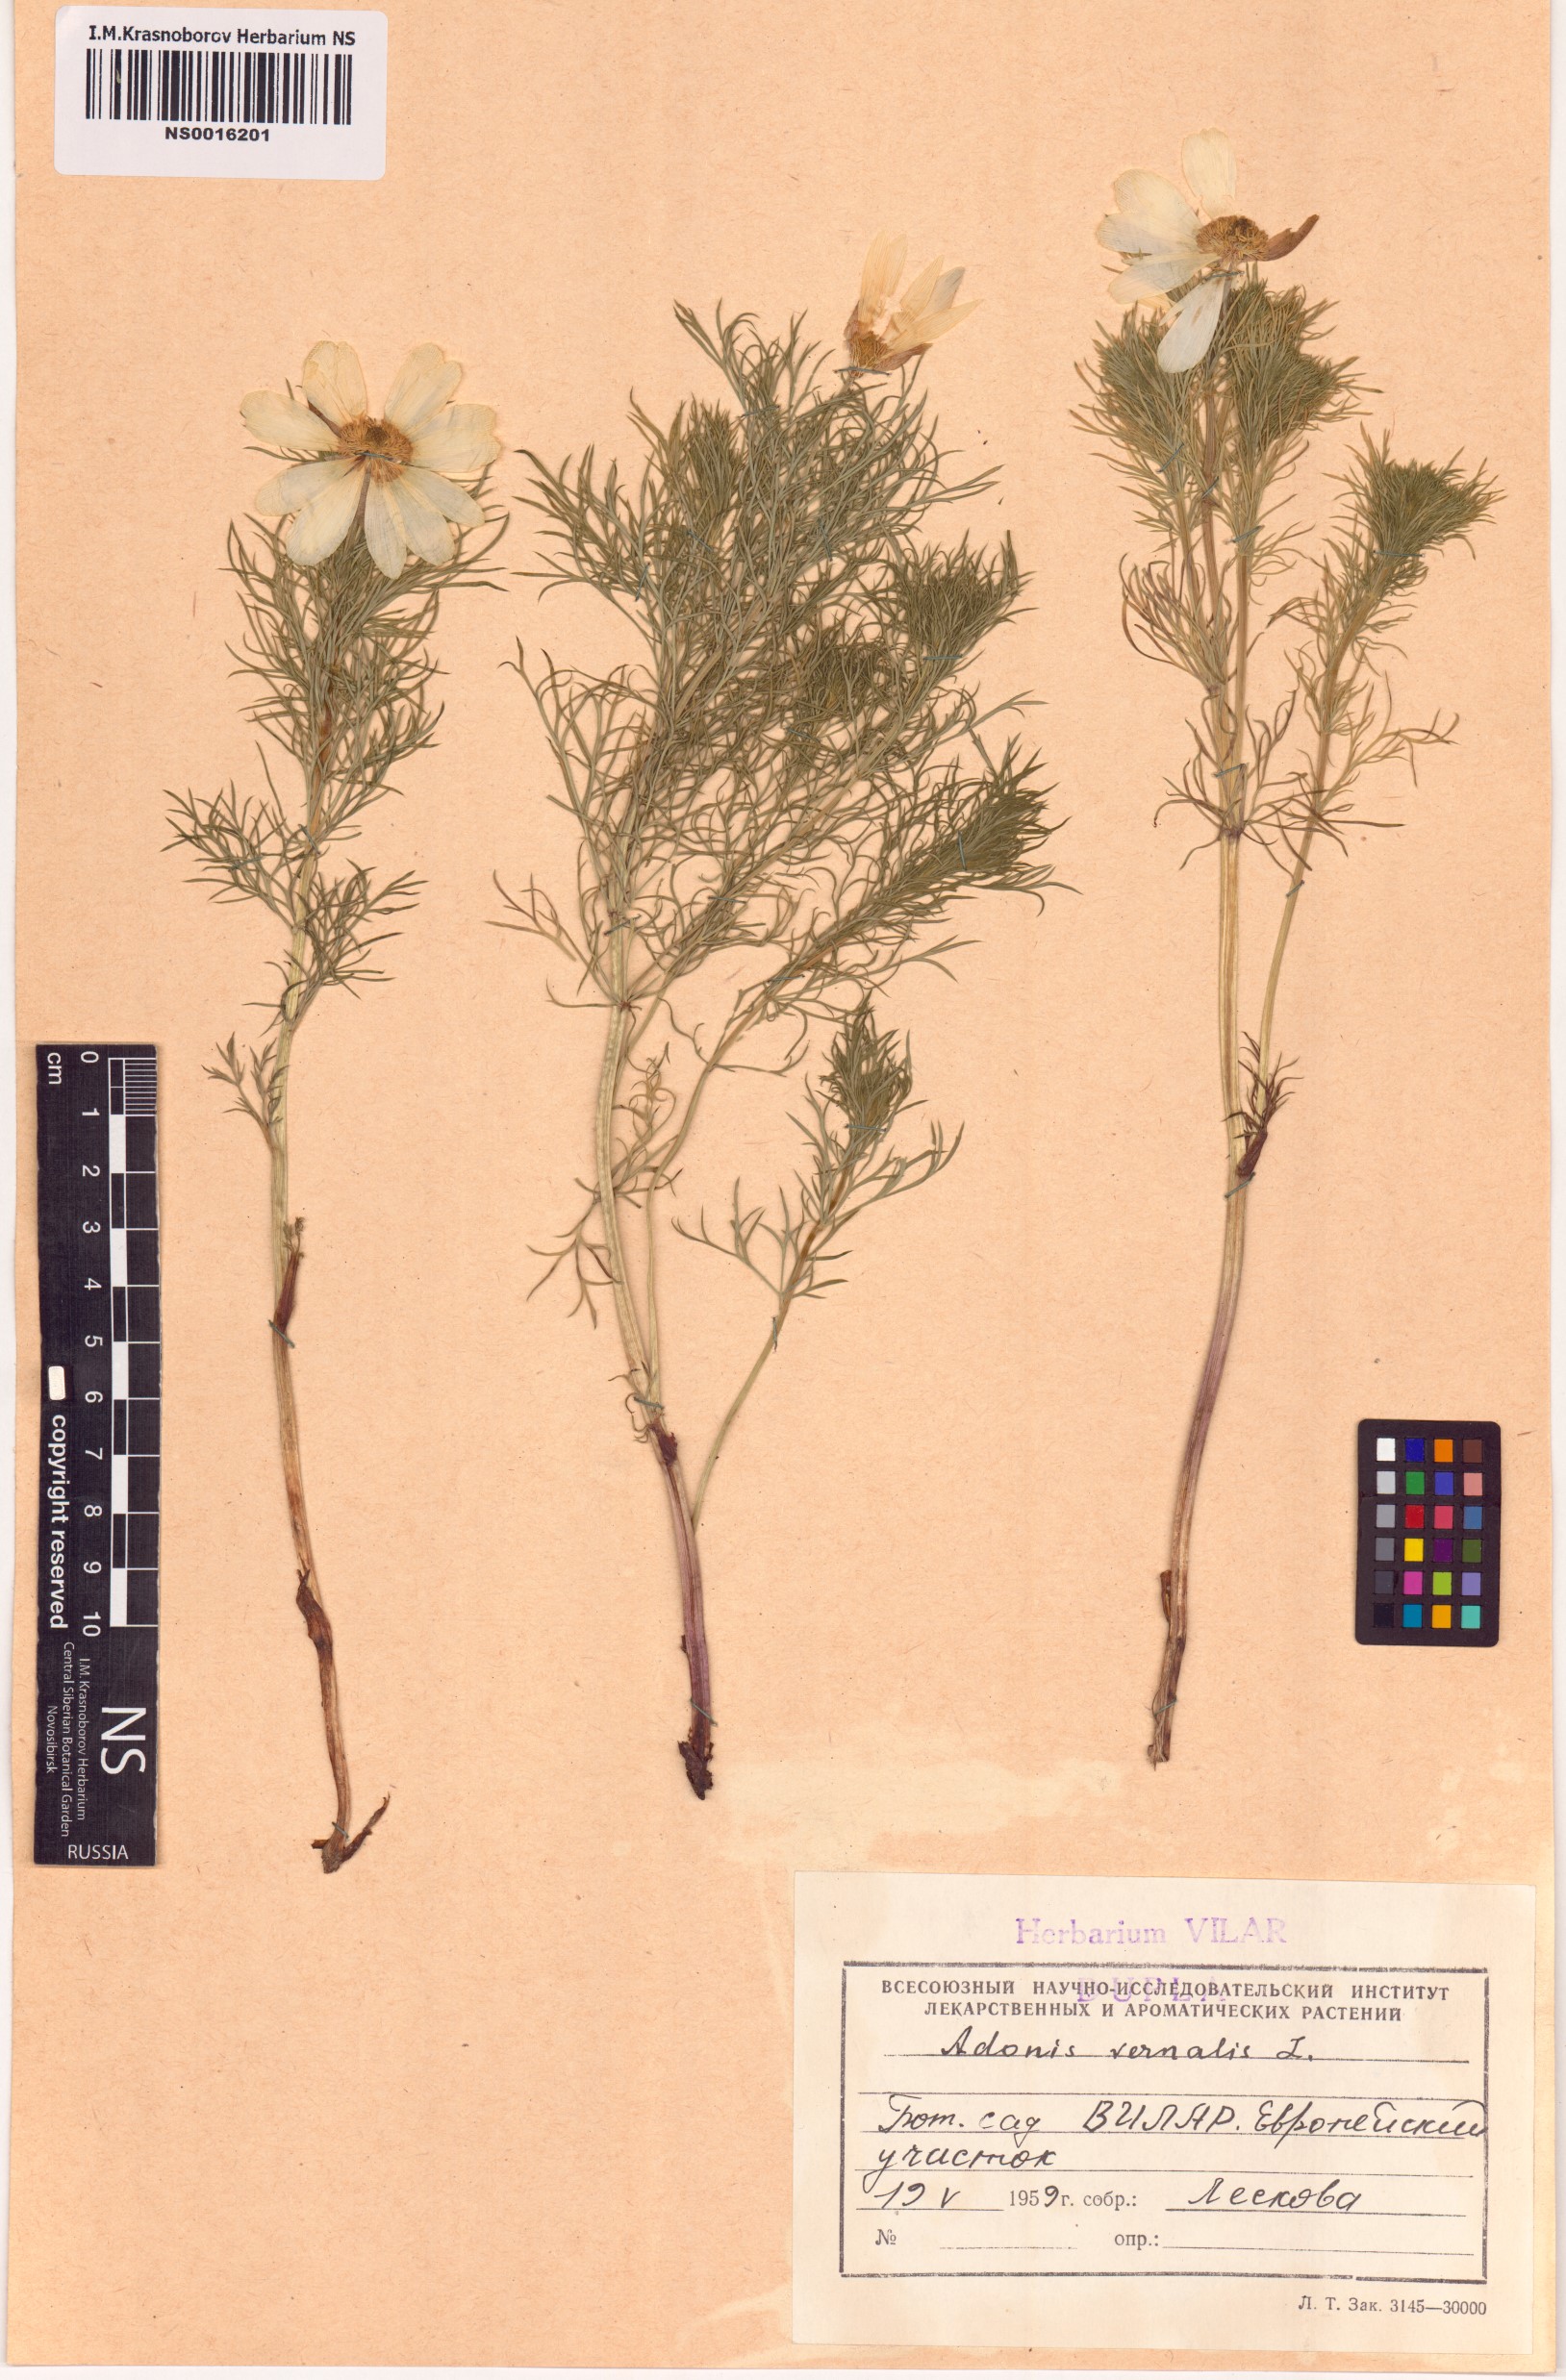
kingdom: Plantae
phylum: Tracheophyta
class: Magnoliopsida
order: Ranunculales
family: Ranunculaceae
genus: Adonis
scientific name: Adonis vernalis
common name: Yellow pheasants-eye
